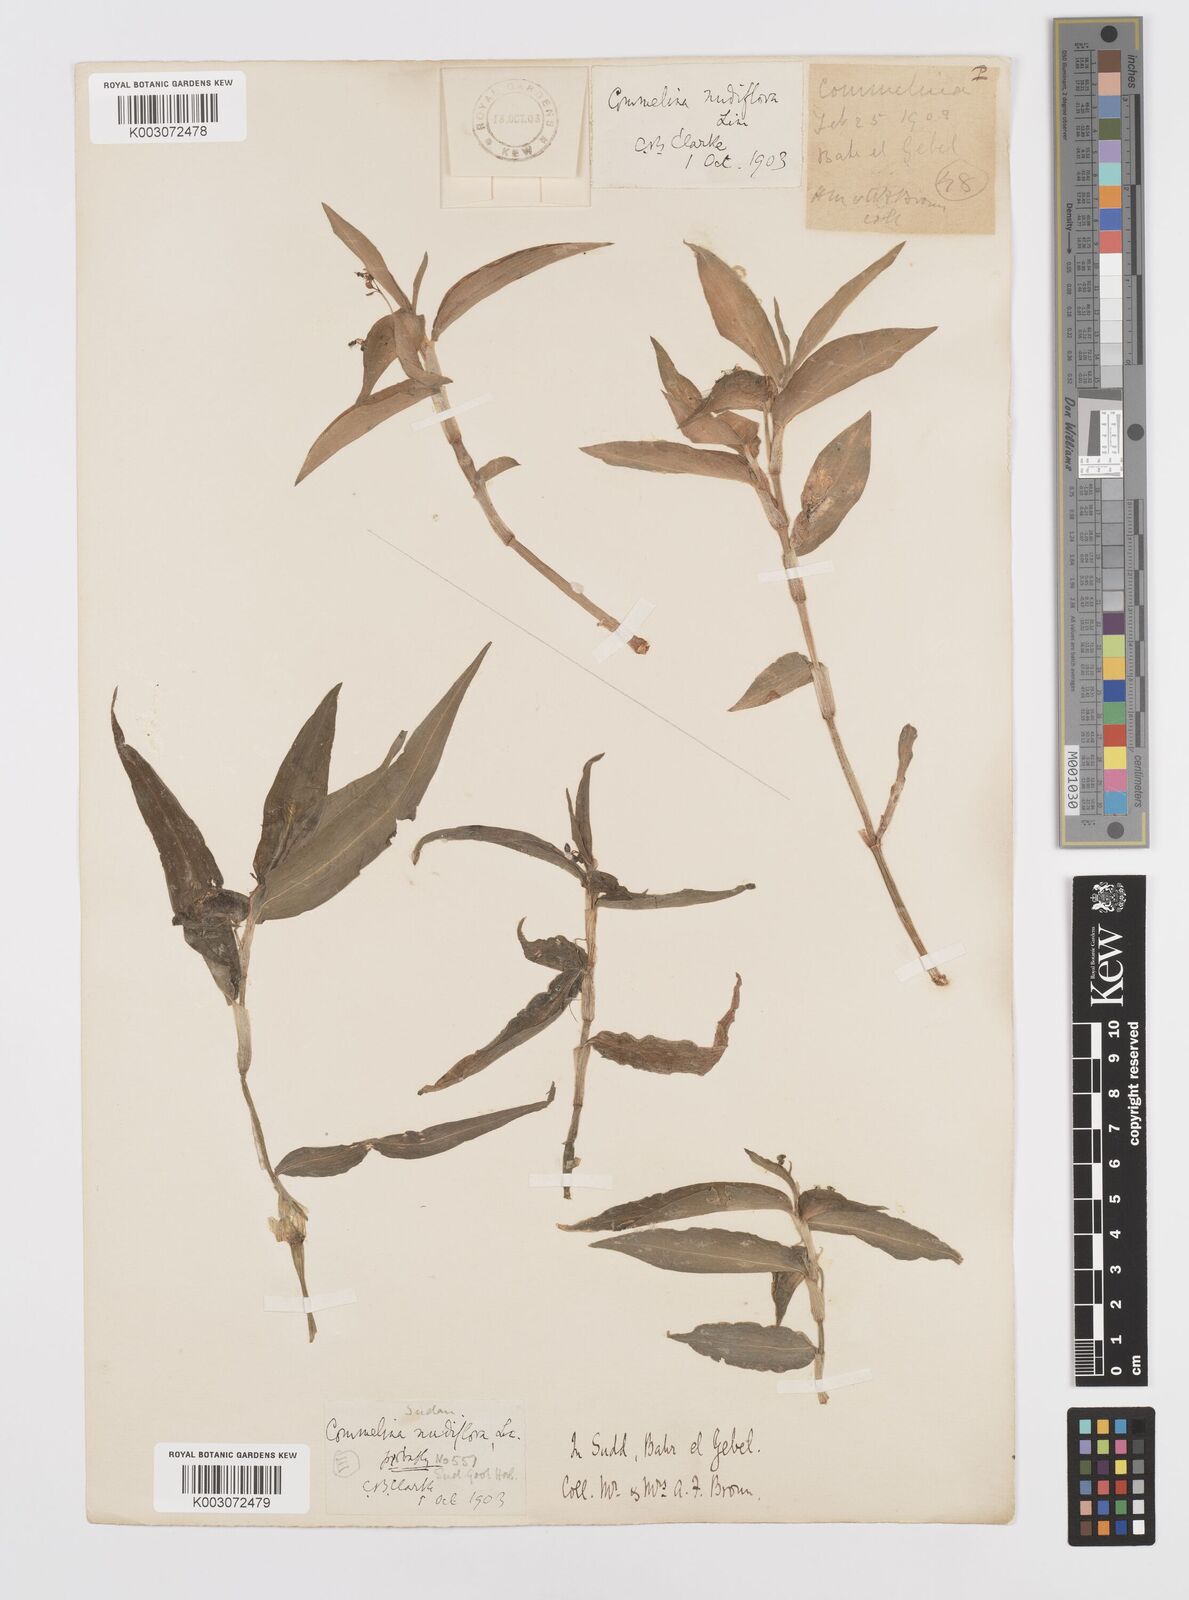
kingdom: Plantae
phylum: Tracheophyta
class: Liliopsida
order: Commelinales
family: Commelinaceae
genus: Commelina
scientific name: Commelina diffusa
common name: Climbing dayflower
